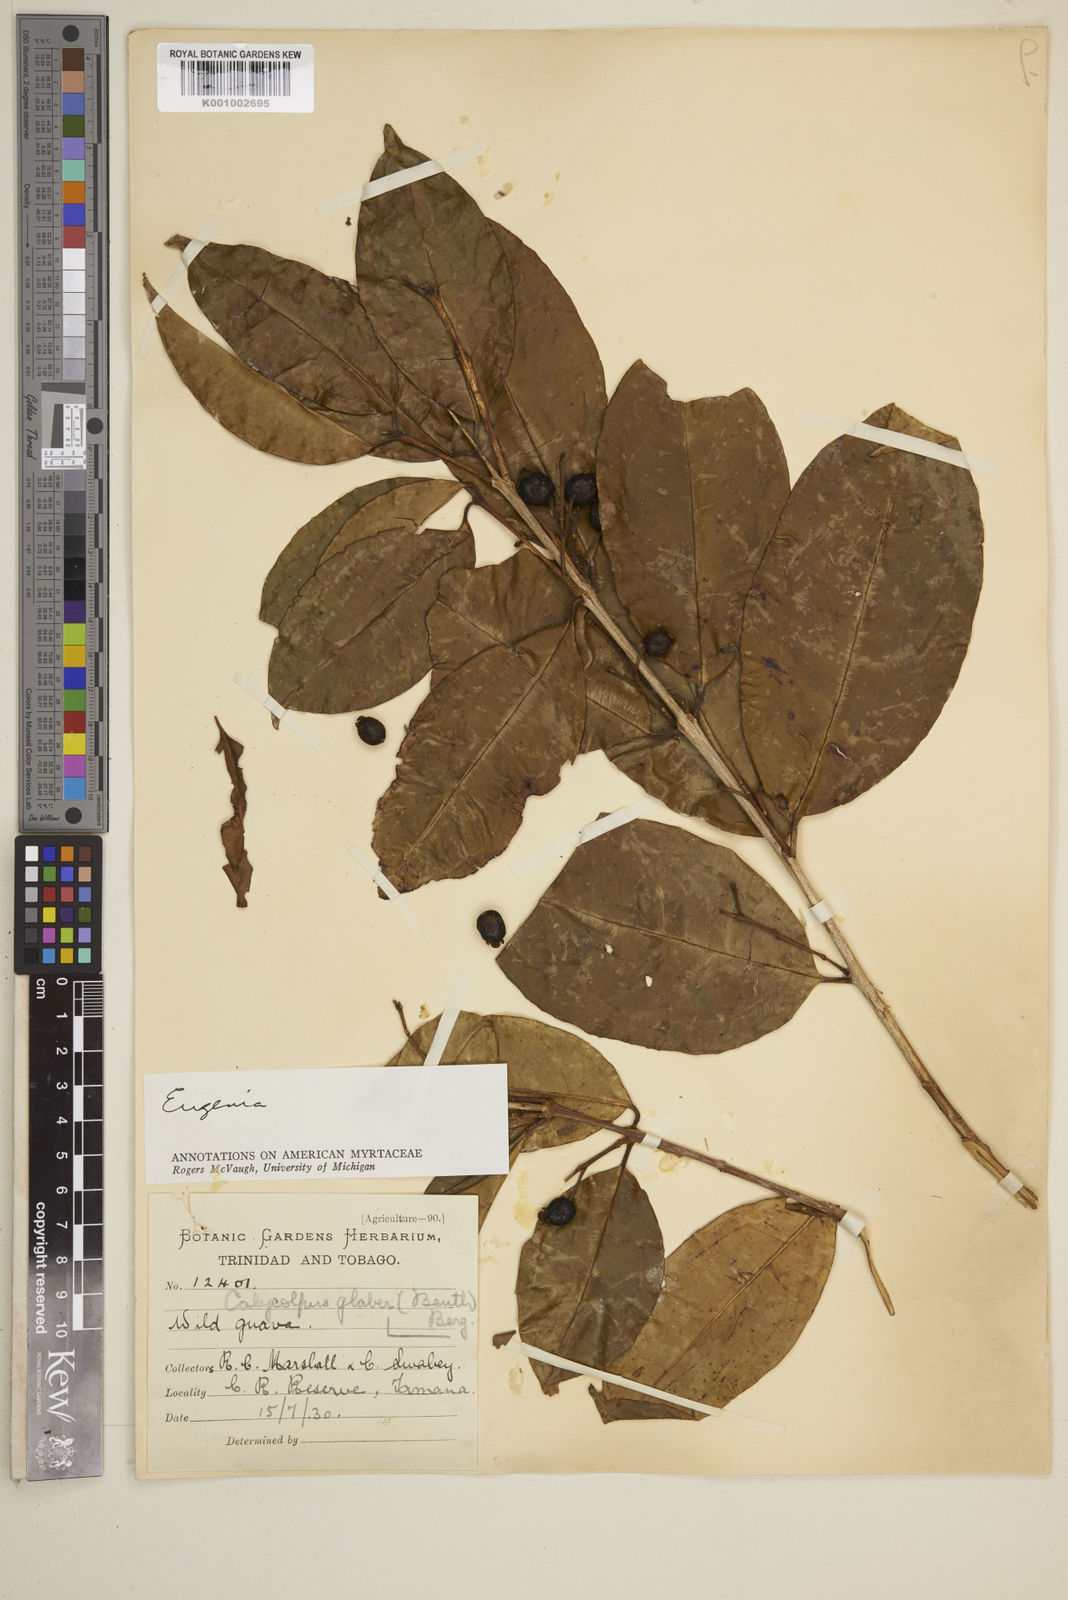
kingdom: Plantae
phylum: Tracheophyta
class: Magnoliopsida
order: Myrtales
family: Myrtaceae
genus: Eugenia
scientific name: Eugenia
